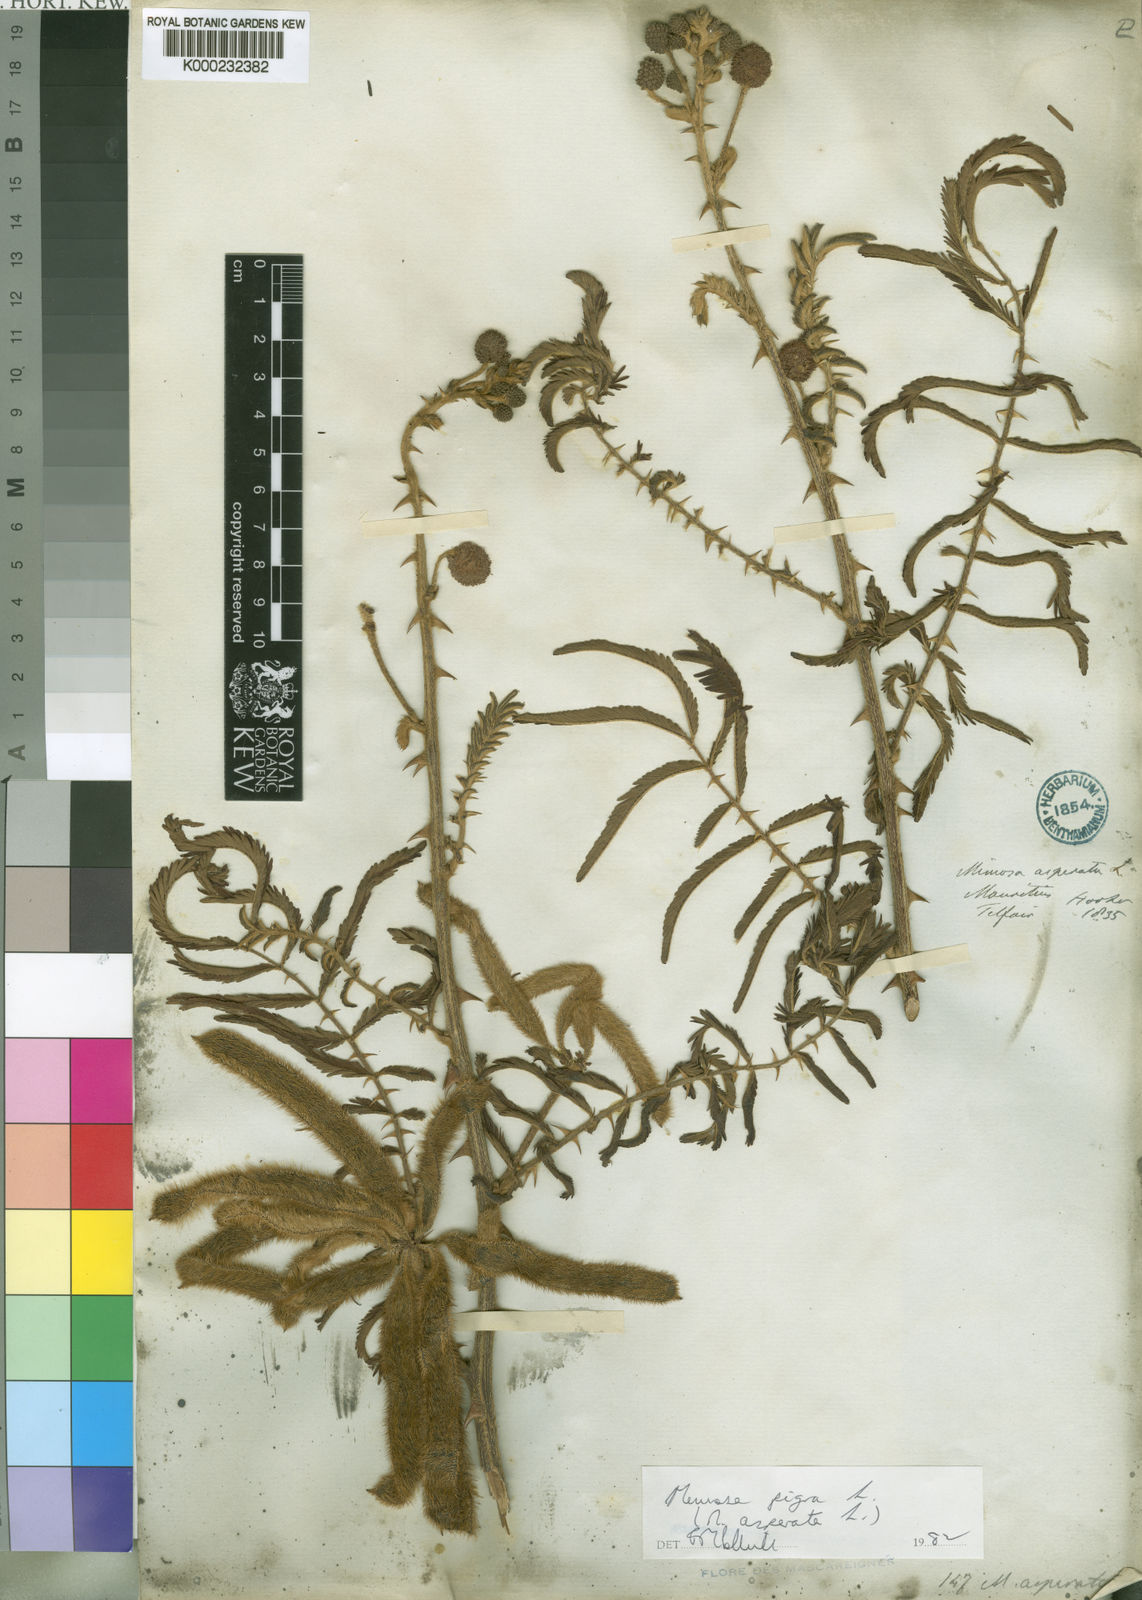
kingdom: Plantae
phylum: Tracheophyta
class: Magnoliopsida
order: Fabales
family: Fabaceae
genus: Mimosa
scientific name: Mimosa pigra
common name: Black mimosa
